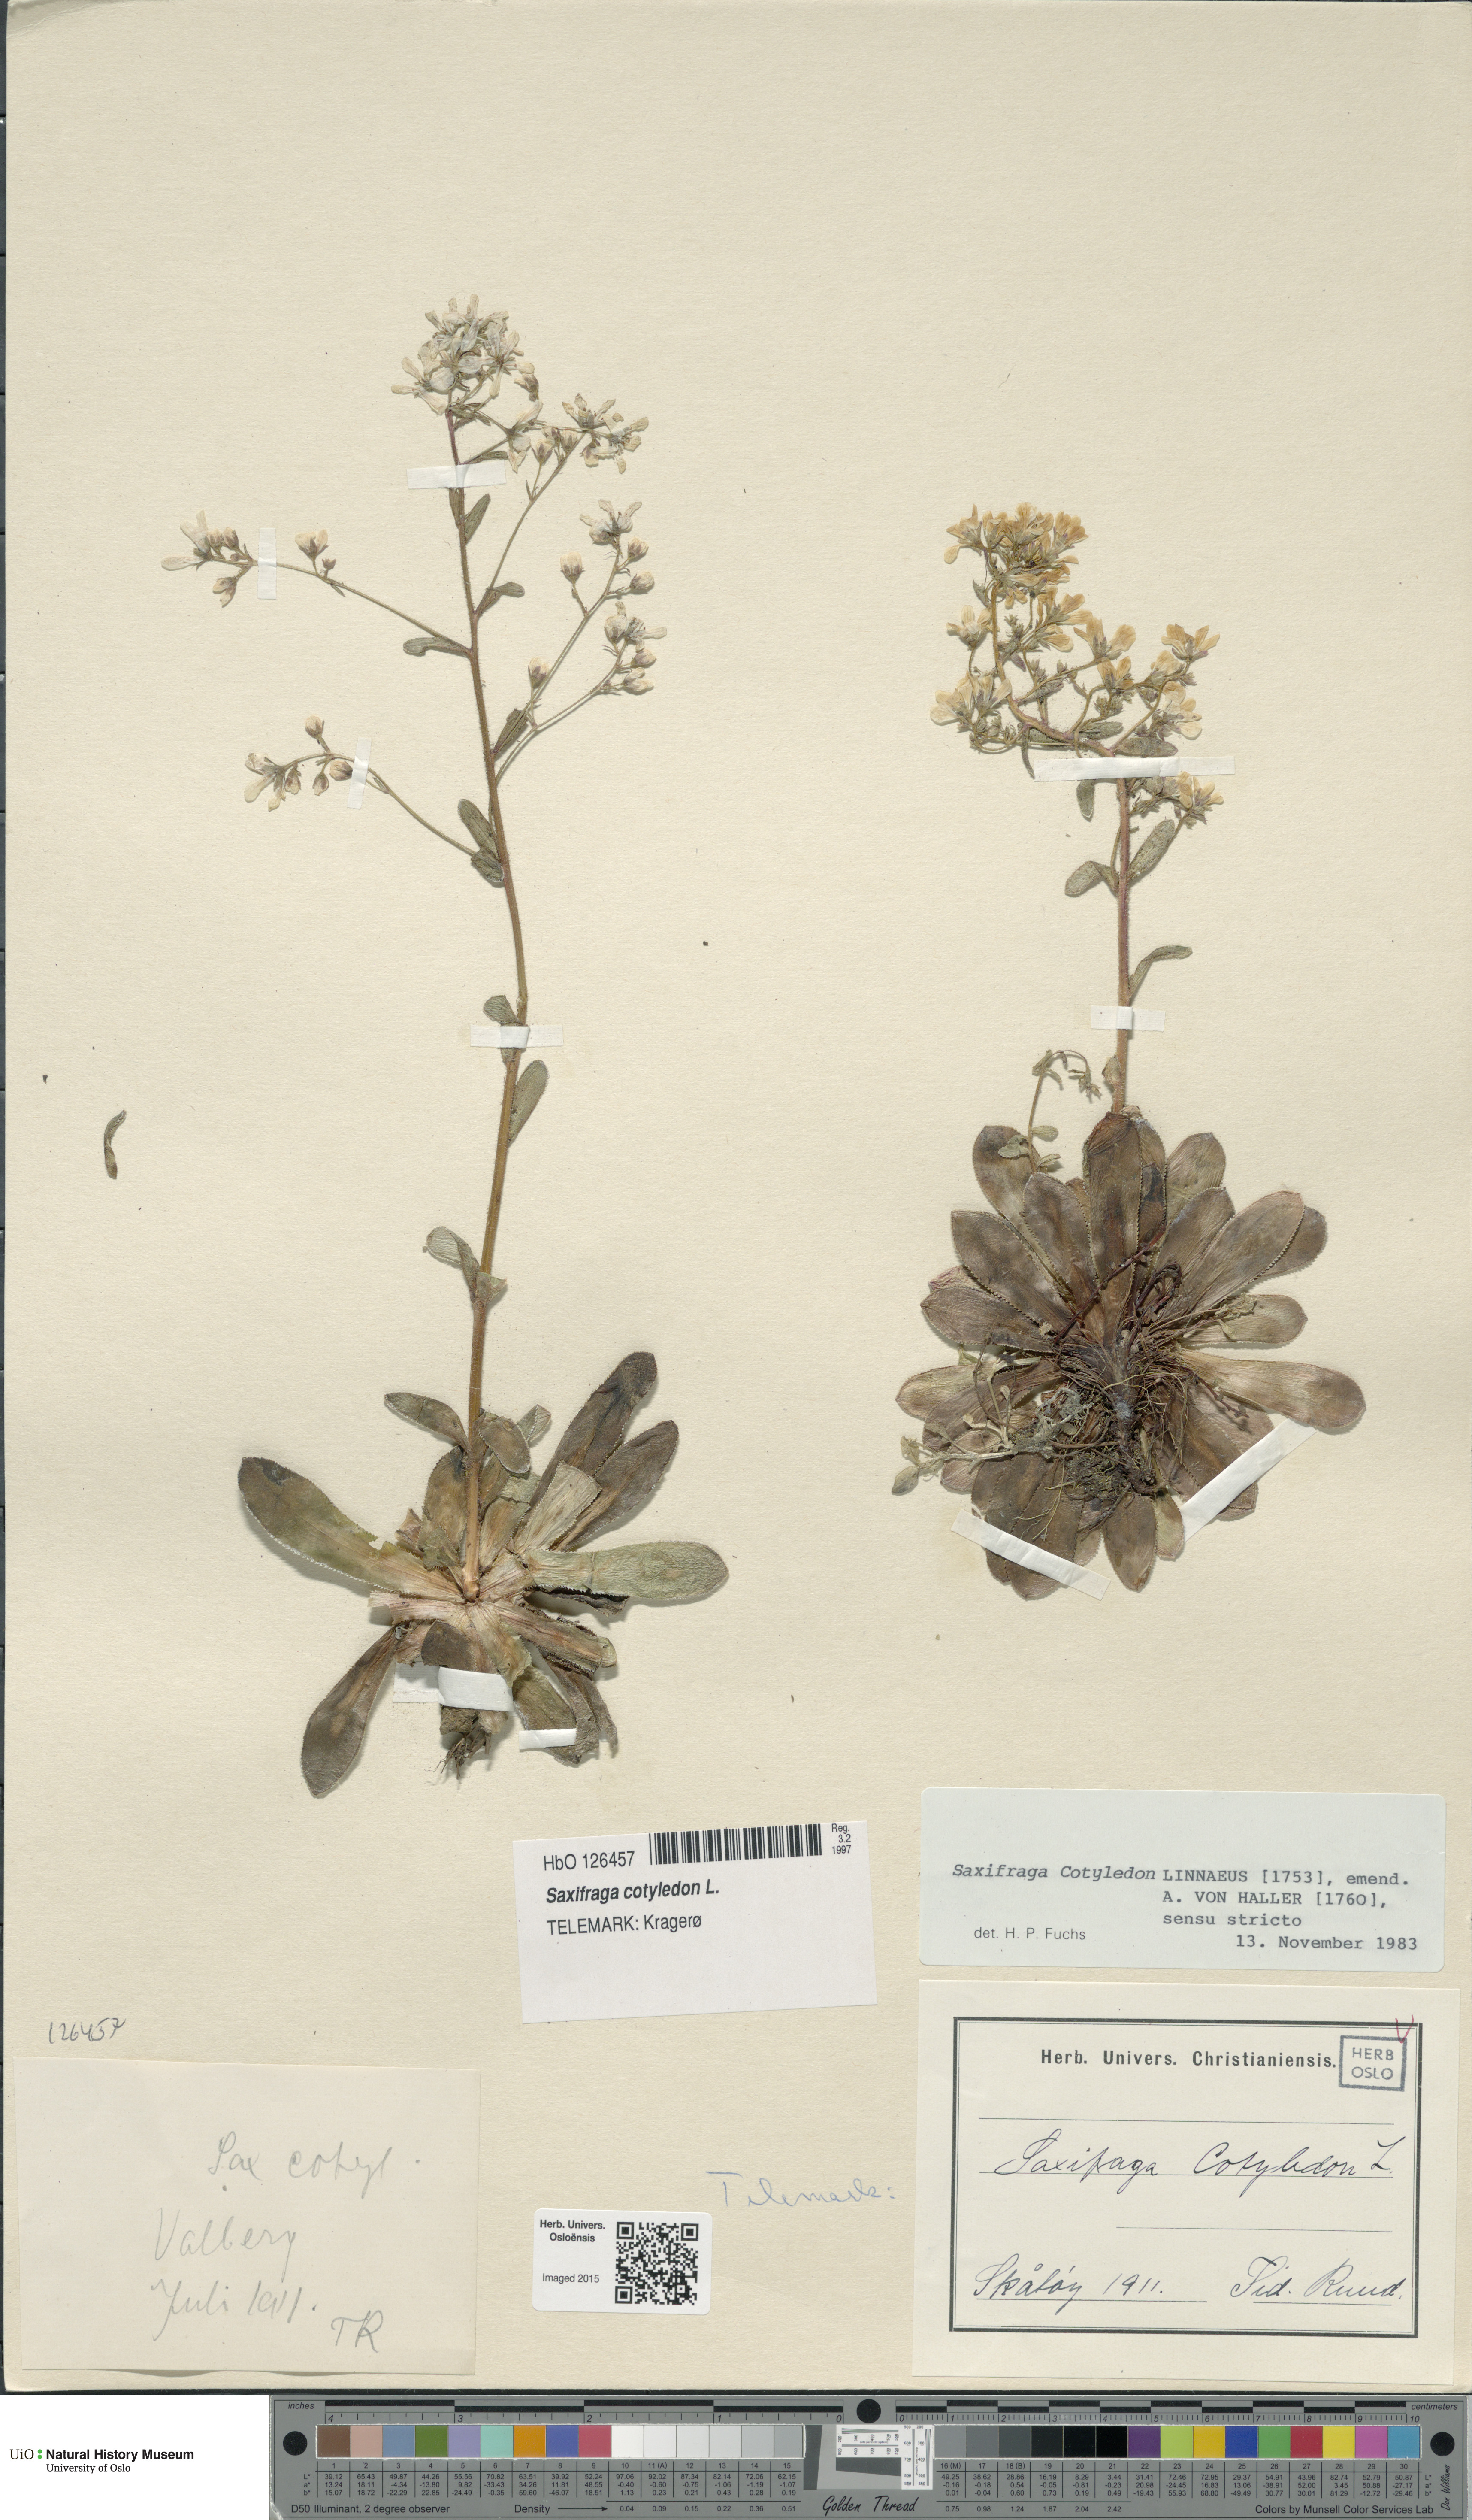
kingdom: Plantae
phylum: Tracheophyta
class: Magnoliopsida
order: Saxifragales
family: Saxifragaceae
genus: Saxifraga
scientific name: Saxifraga cotyledon
